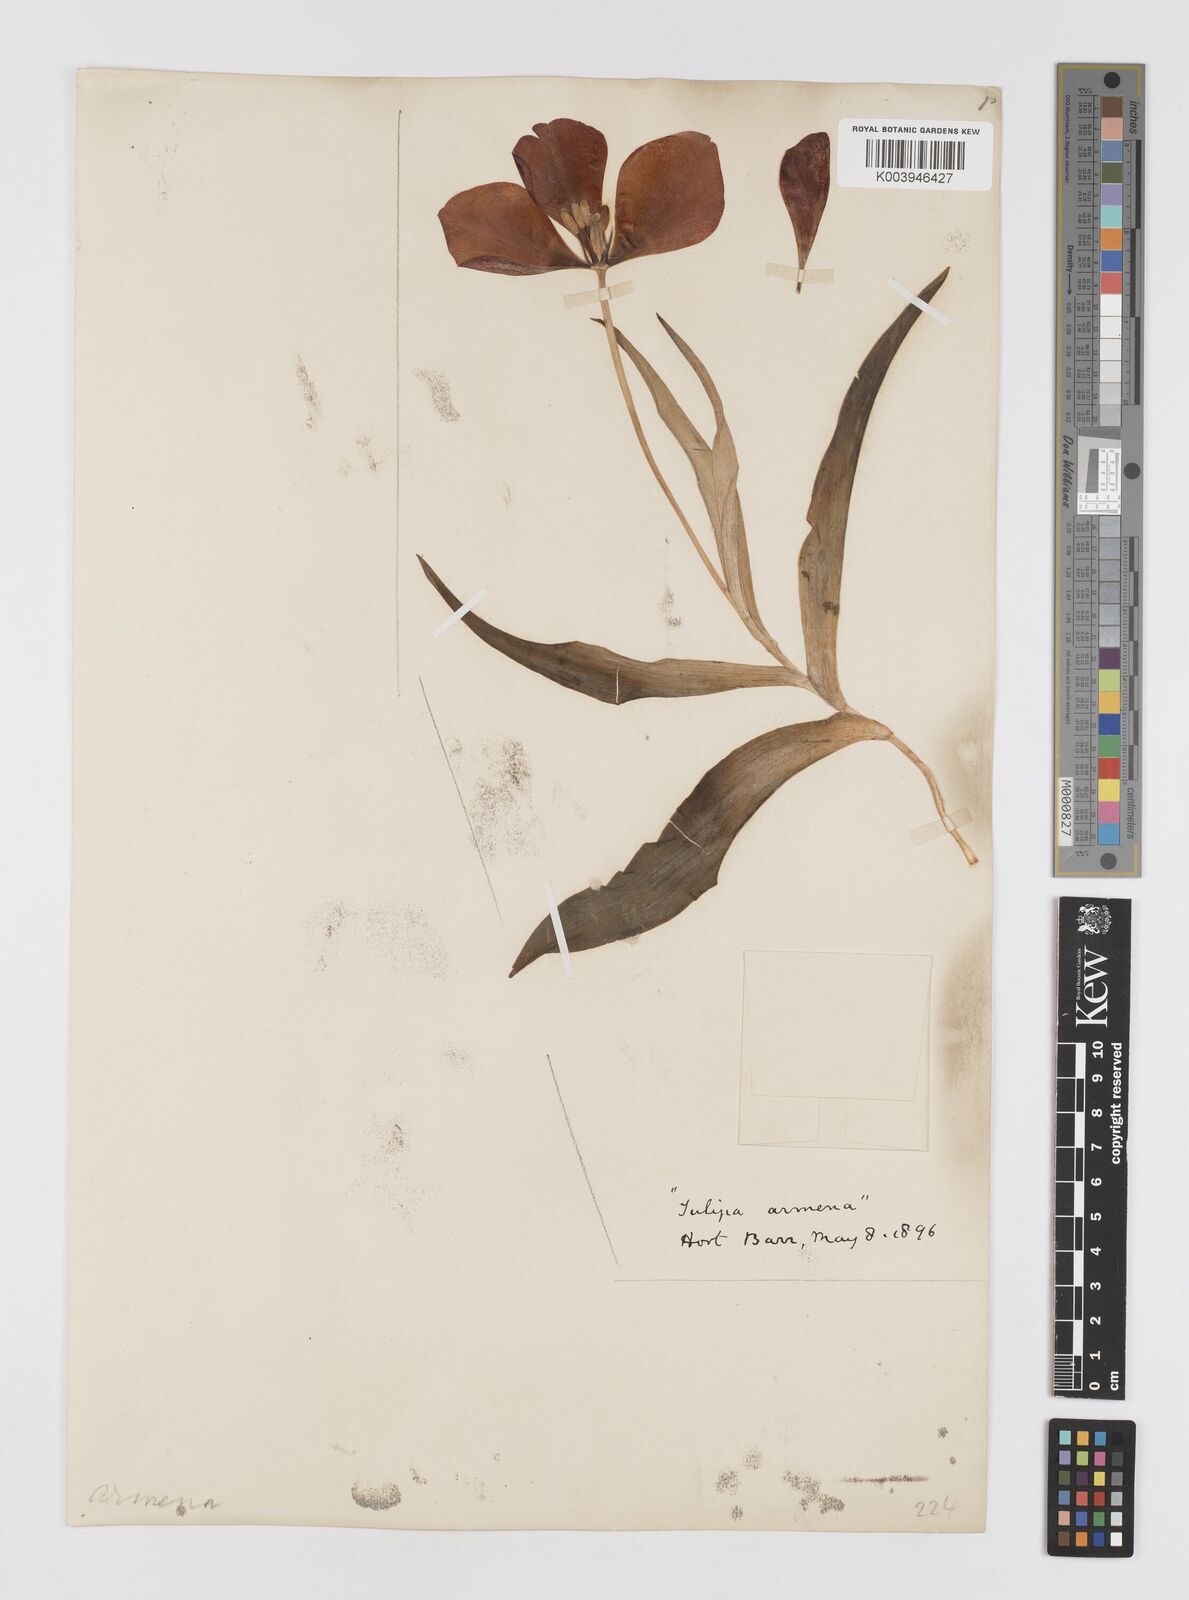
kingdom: Plantae
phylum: Tracheophyta
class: Liliopsida
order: Liliales
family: Liliaceae
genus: Tulipa
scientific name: Tulipa
